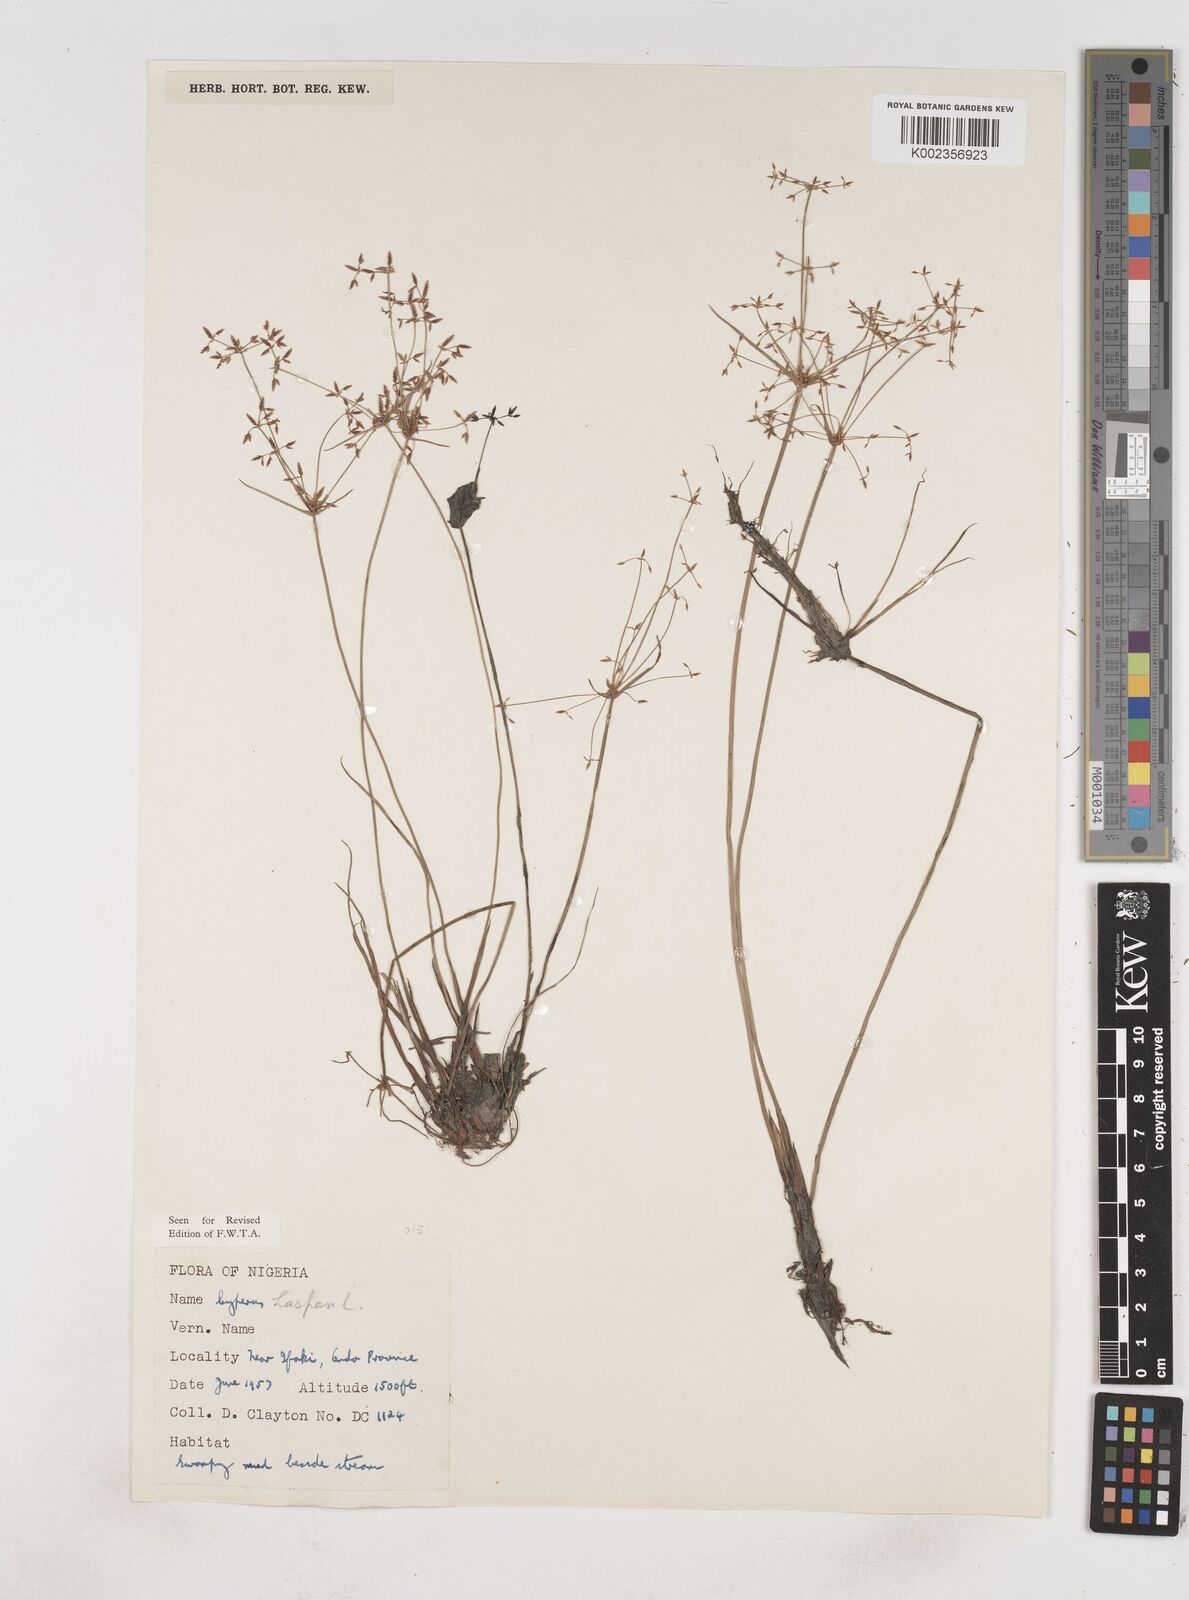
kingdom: Plantae
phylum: Tracheophyta
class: Liliopsida
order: Poales
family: Cyperaceae
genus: Cyperus
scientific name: Cyperus haspan
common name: Haspan flatsedge
